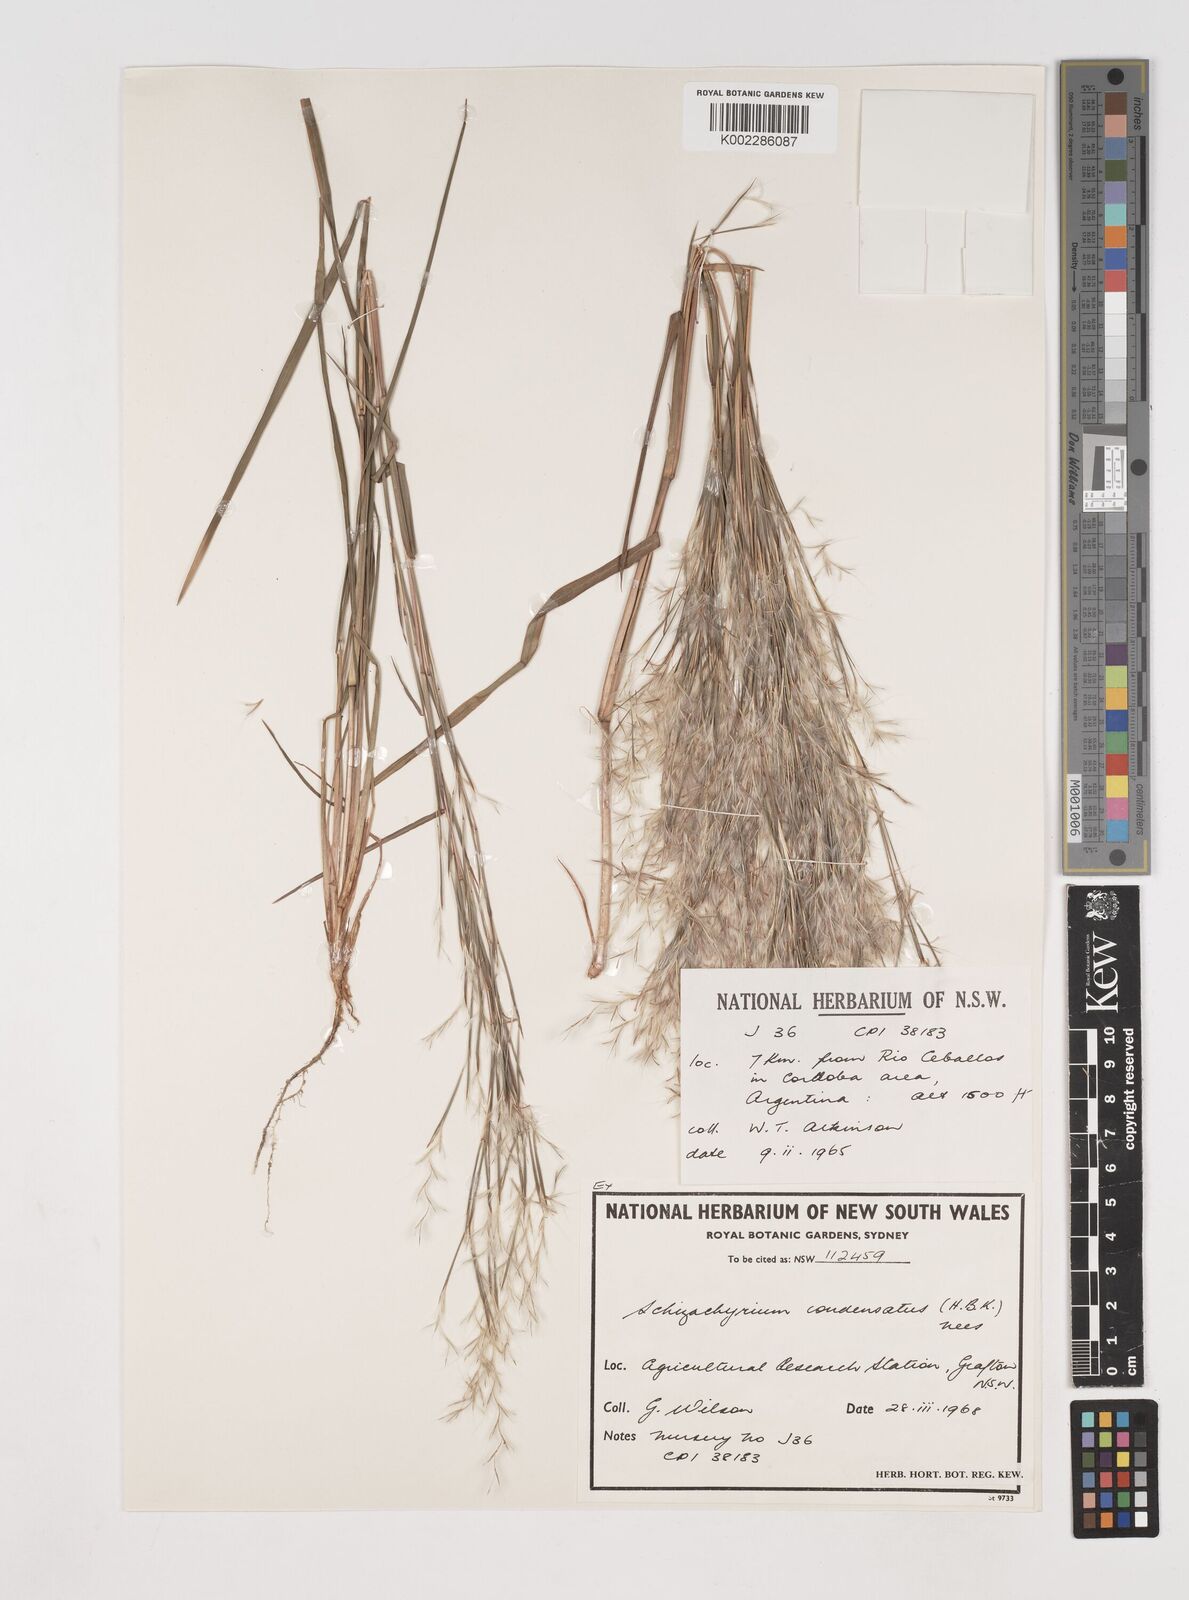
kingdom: Plantae
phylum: Tracheophyta
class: Liliopsida
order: Poales
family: Poaceae
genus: Schizachyrium
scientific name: Schizachyrium condensatum
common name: Bush beardgrass
